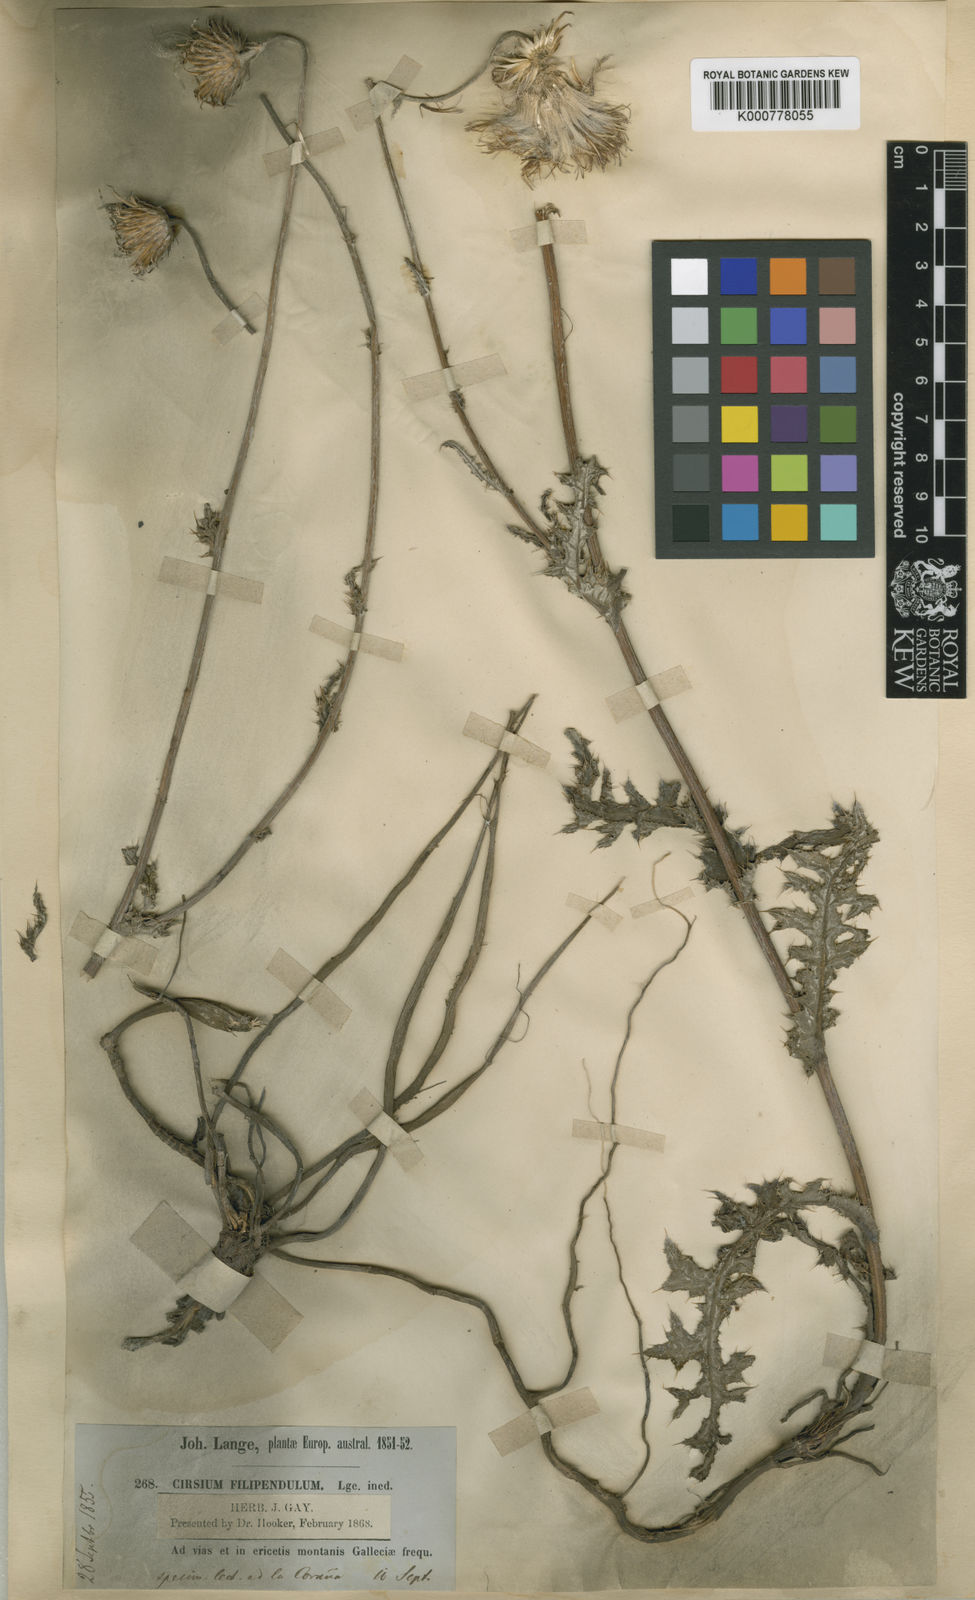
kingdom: Plantae
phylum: Tracheophyta
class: Magnoliopsida
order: Asterales
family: Asteraceae
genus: Cirsium
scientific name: Cirsium filipendulum
